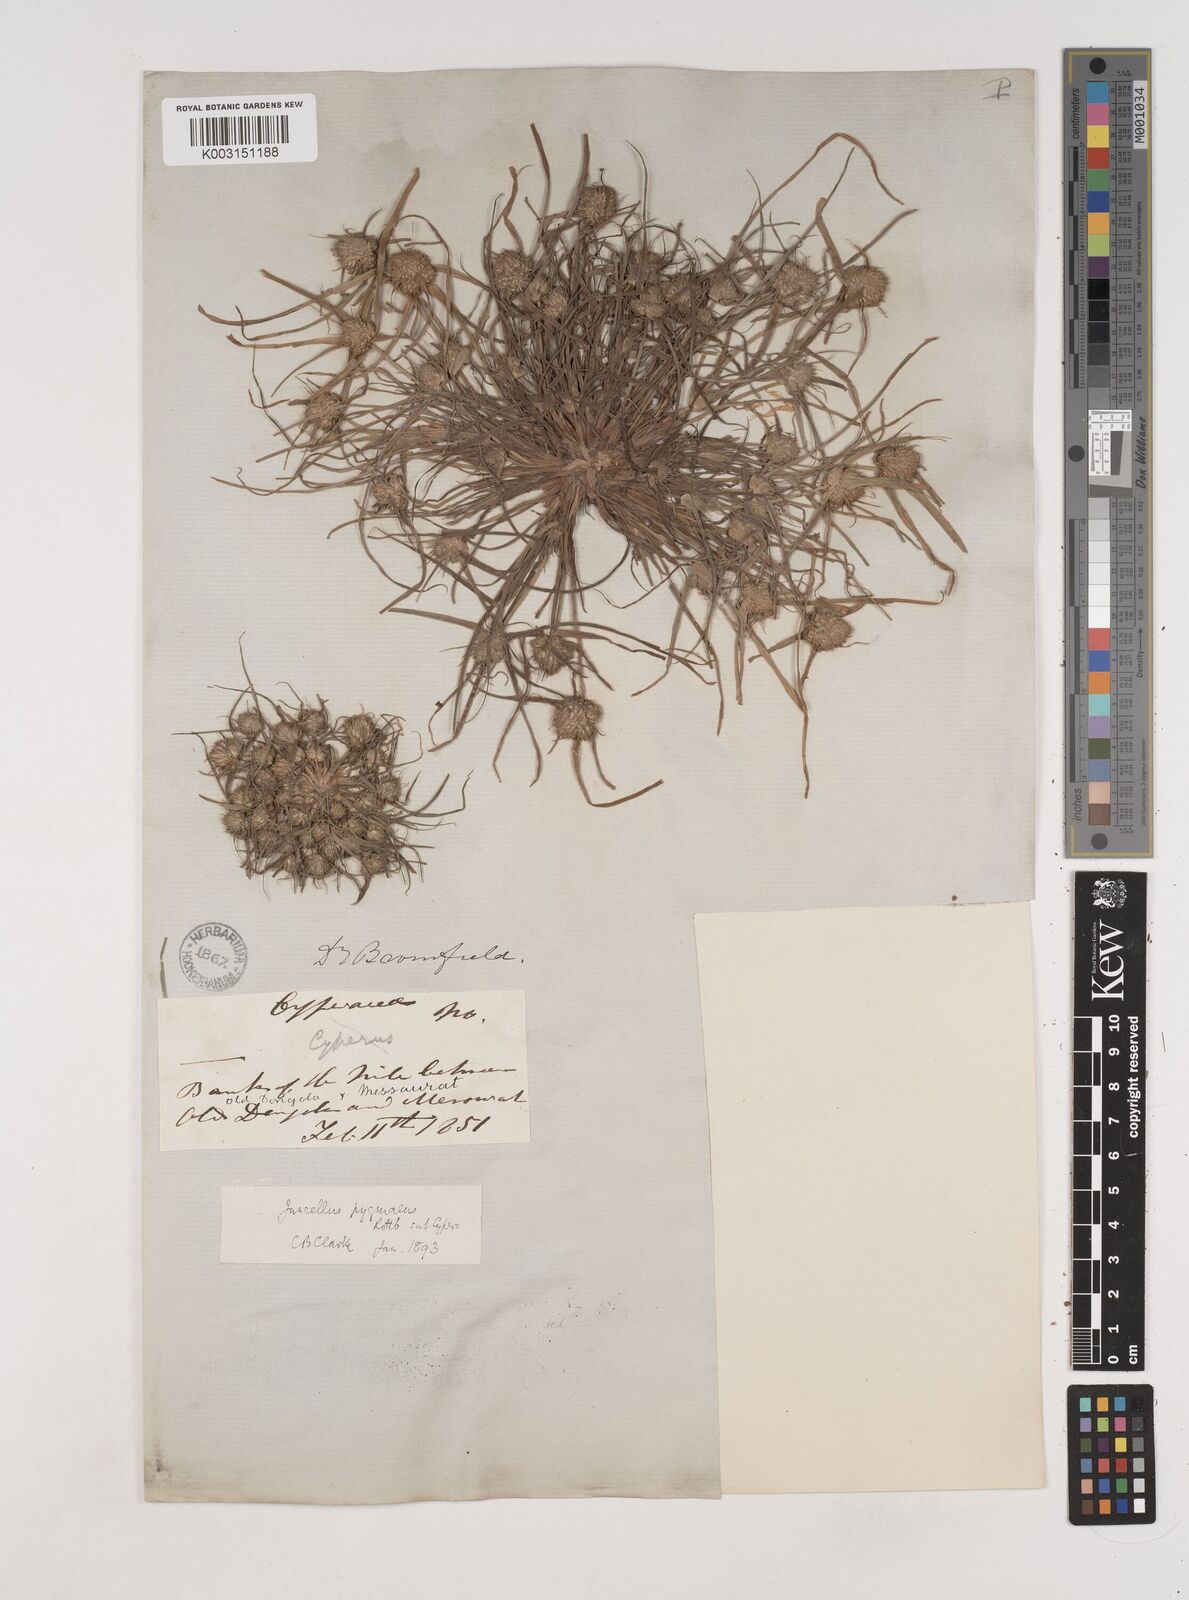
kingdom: Plantae
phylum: Tracheophyta
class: Liliopsida
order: Poales
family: Cyperaceae
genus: Cyperus
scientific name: Cyperus michelianus
